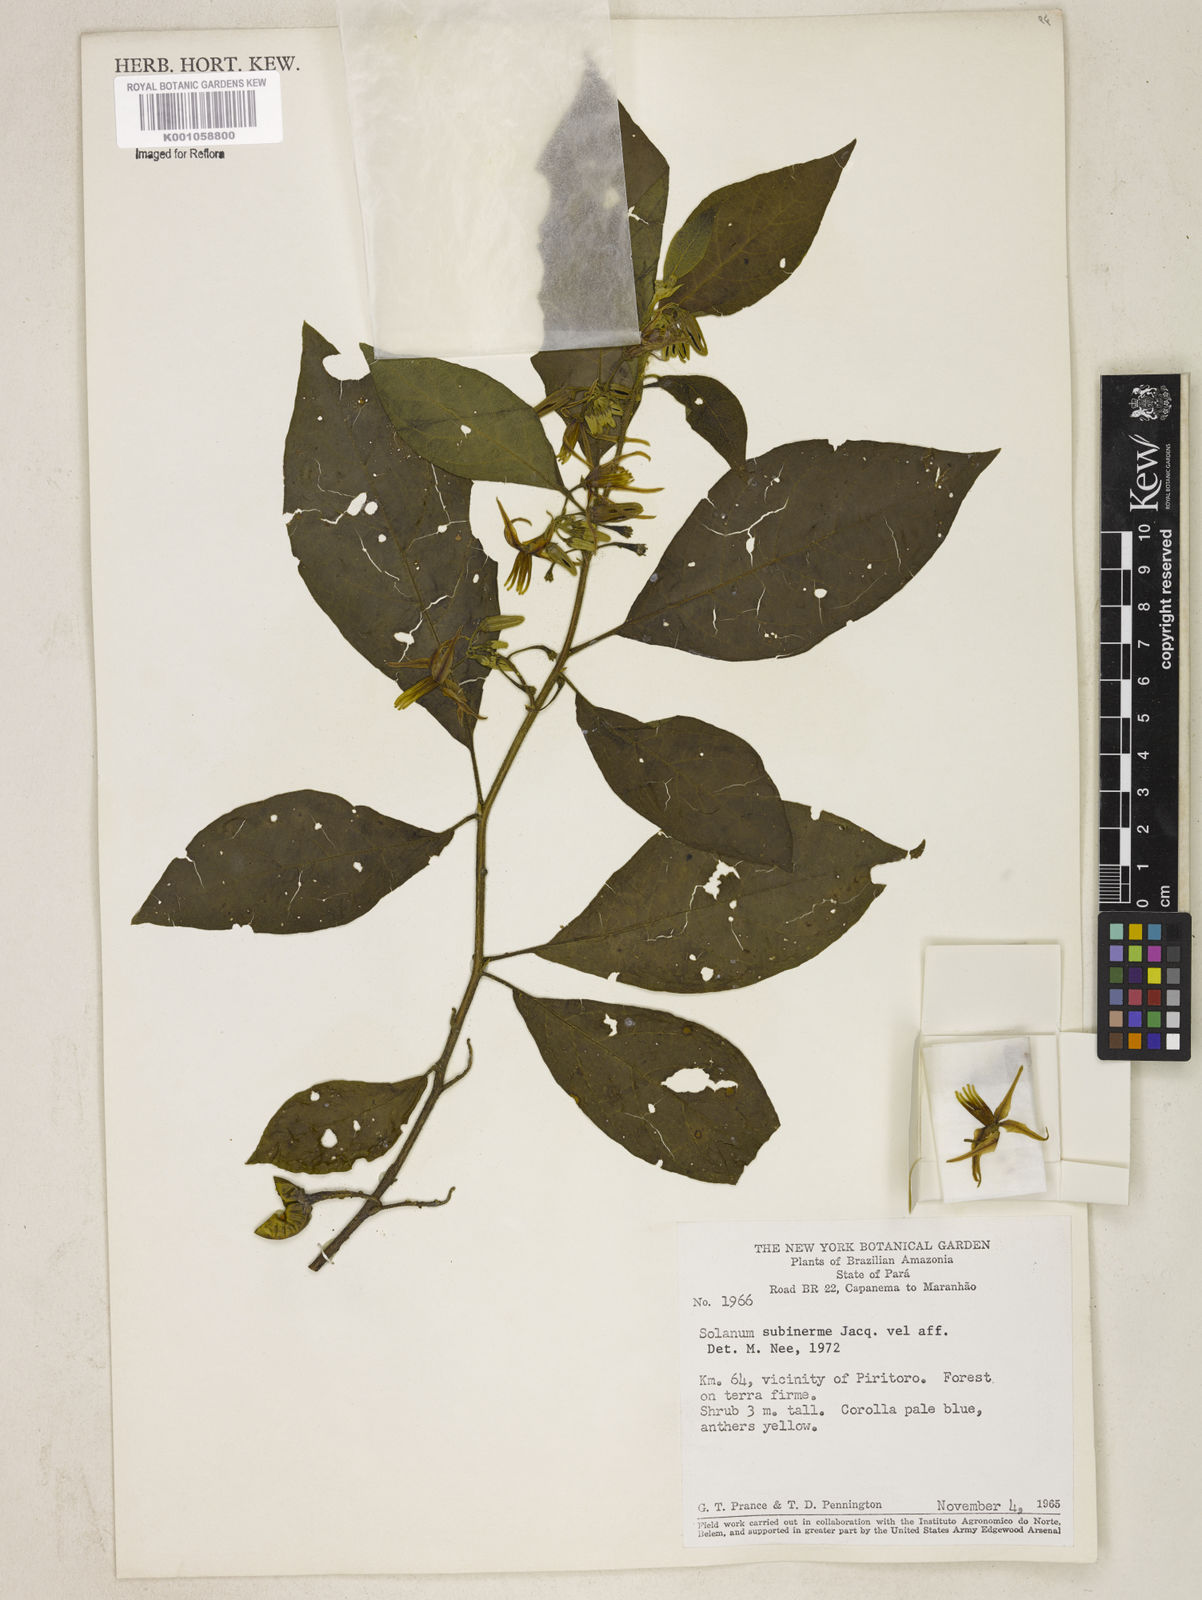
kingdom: Plantae
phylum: Tracheophyta
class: Magnoliopsida
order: Solanales
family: Solanaceae
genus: Solanum
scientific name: Solanum subinerme
